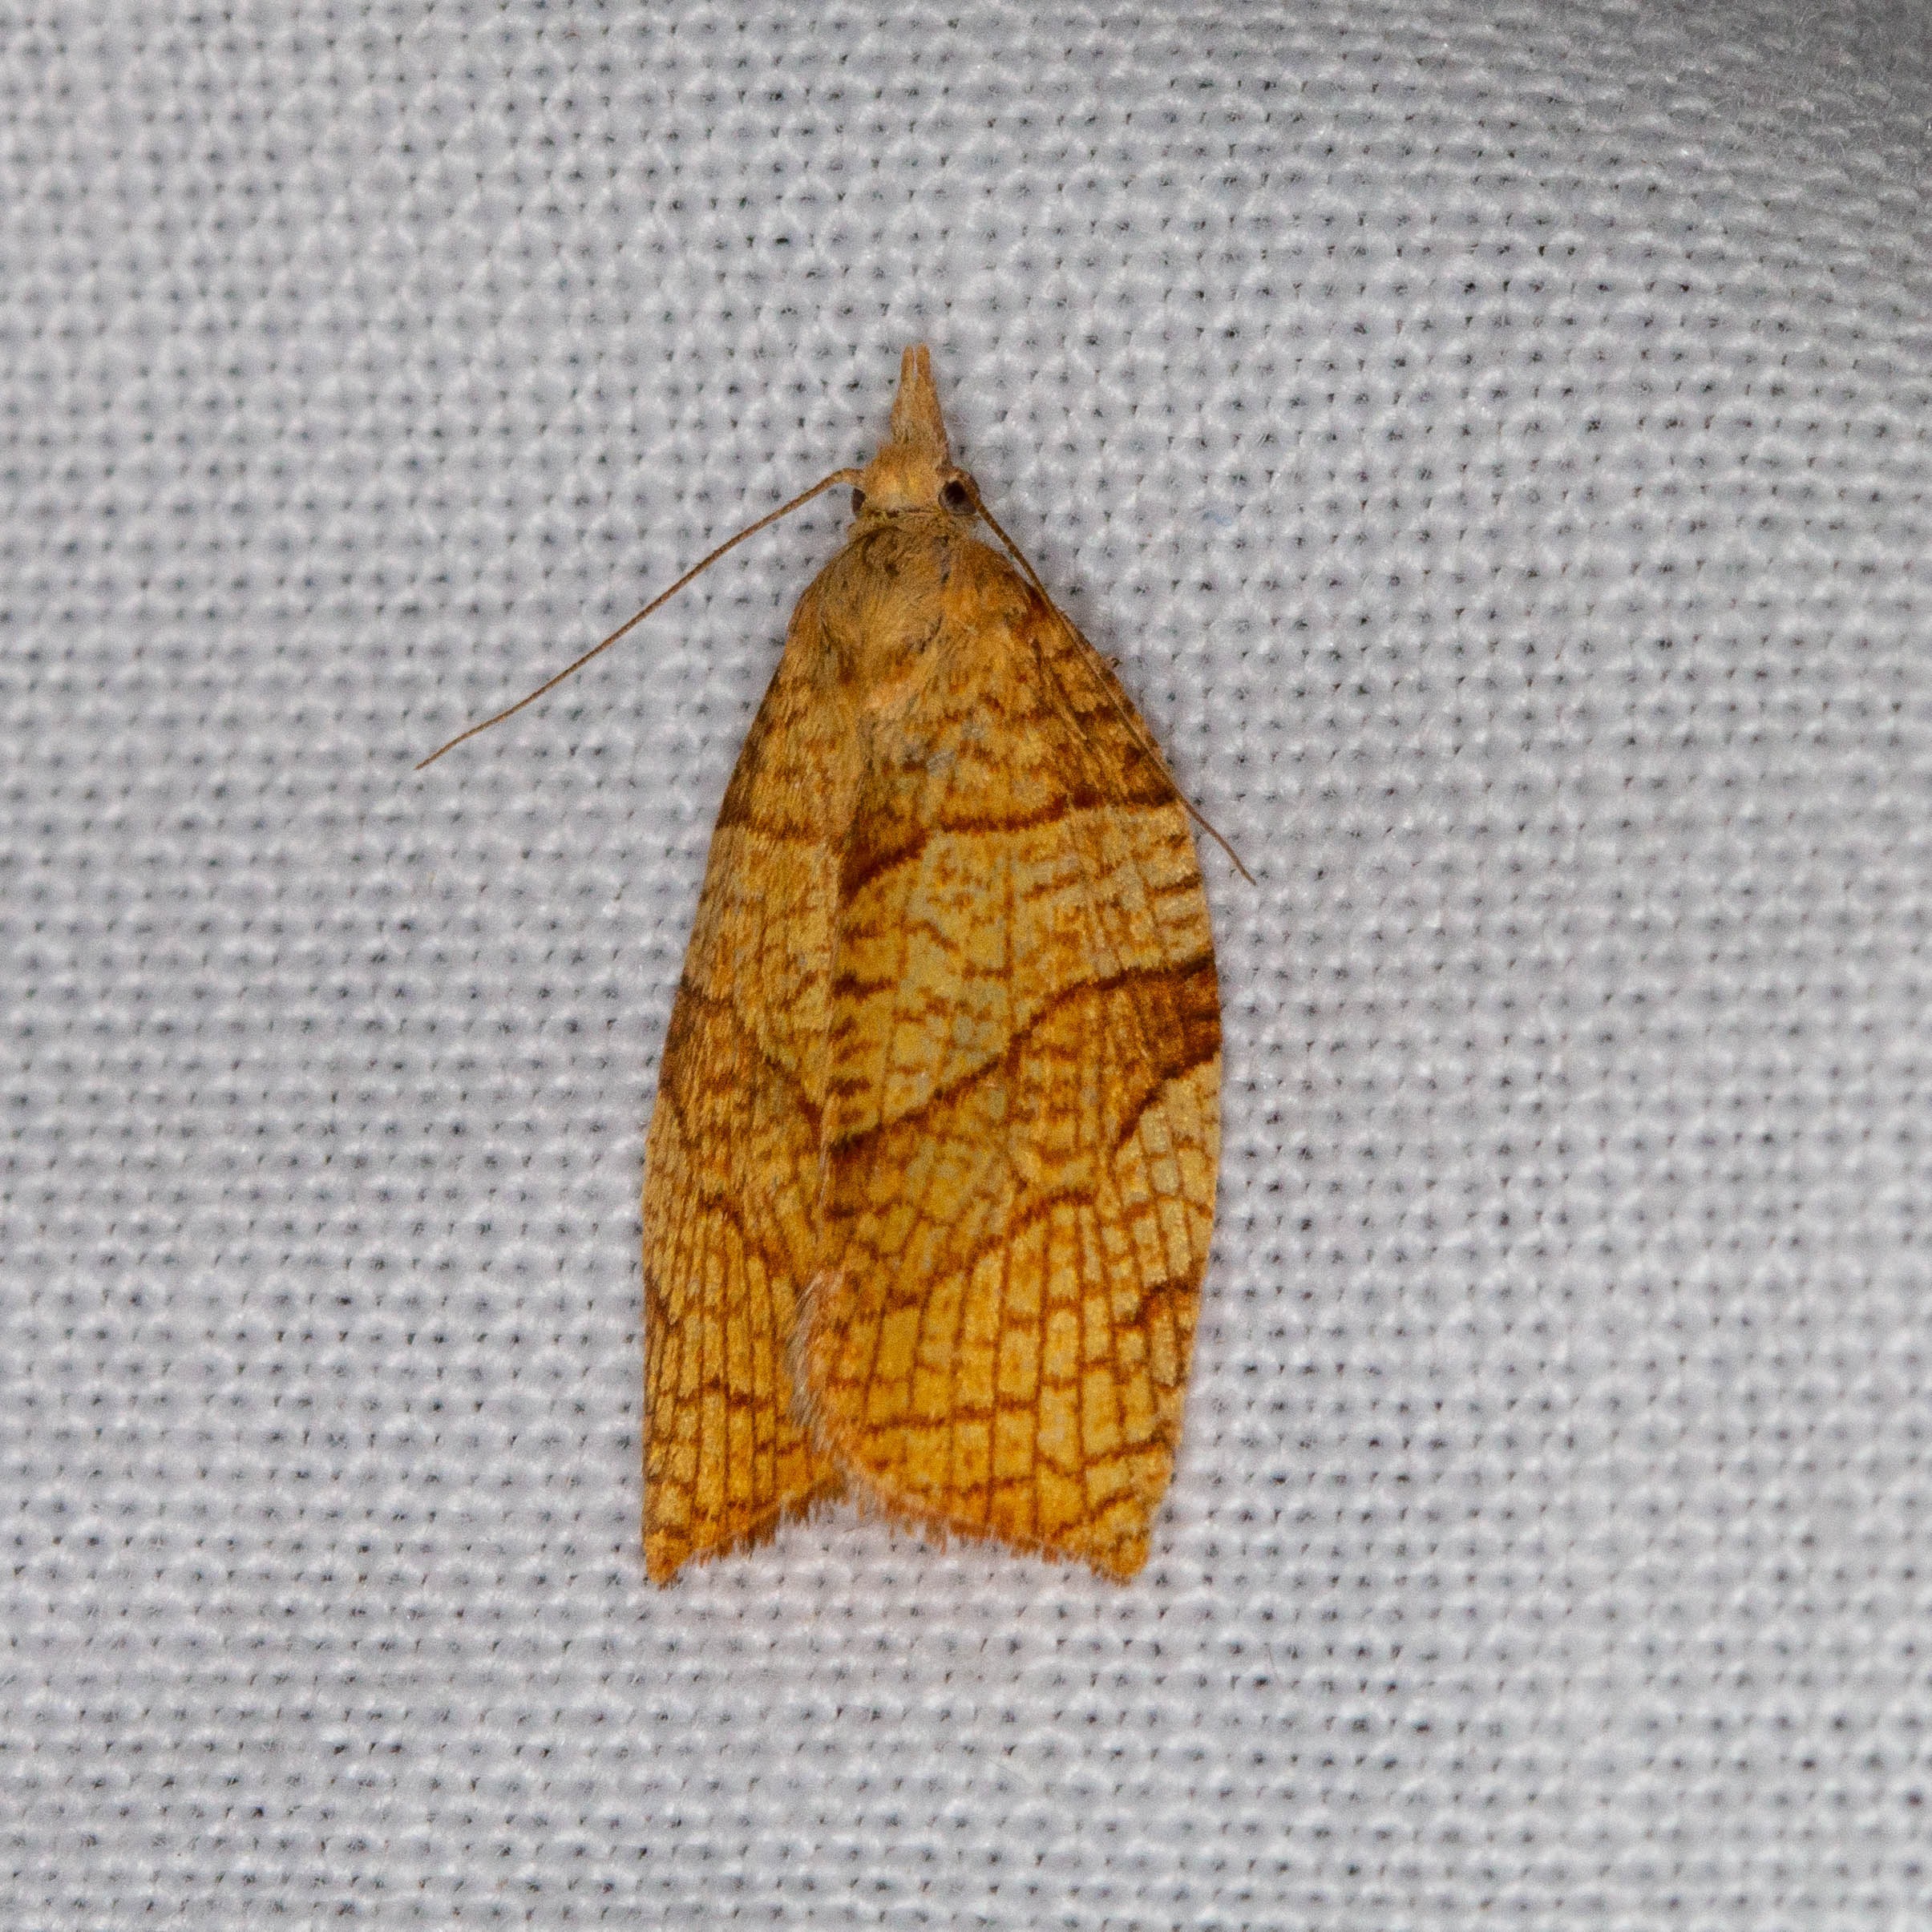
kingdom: Animalia
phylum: Arthropoda
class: Insecta
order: Lepidoptera
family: Tortricidae
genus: Pandemis
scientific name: Pandemis corylana
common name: Hasselbladvikler
